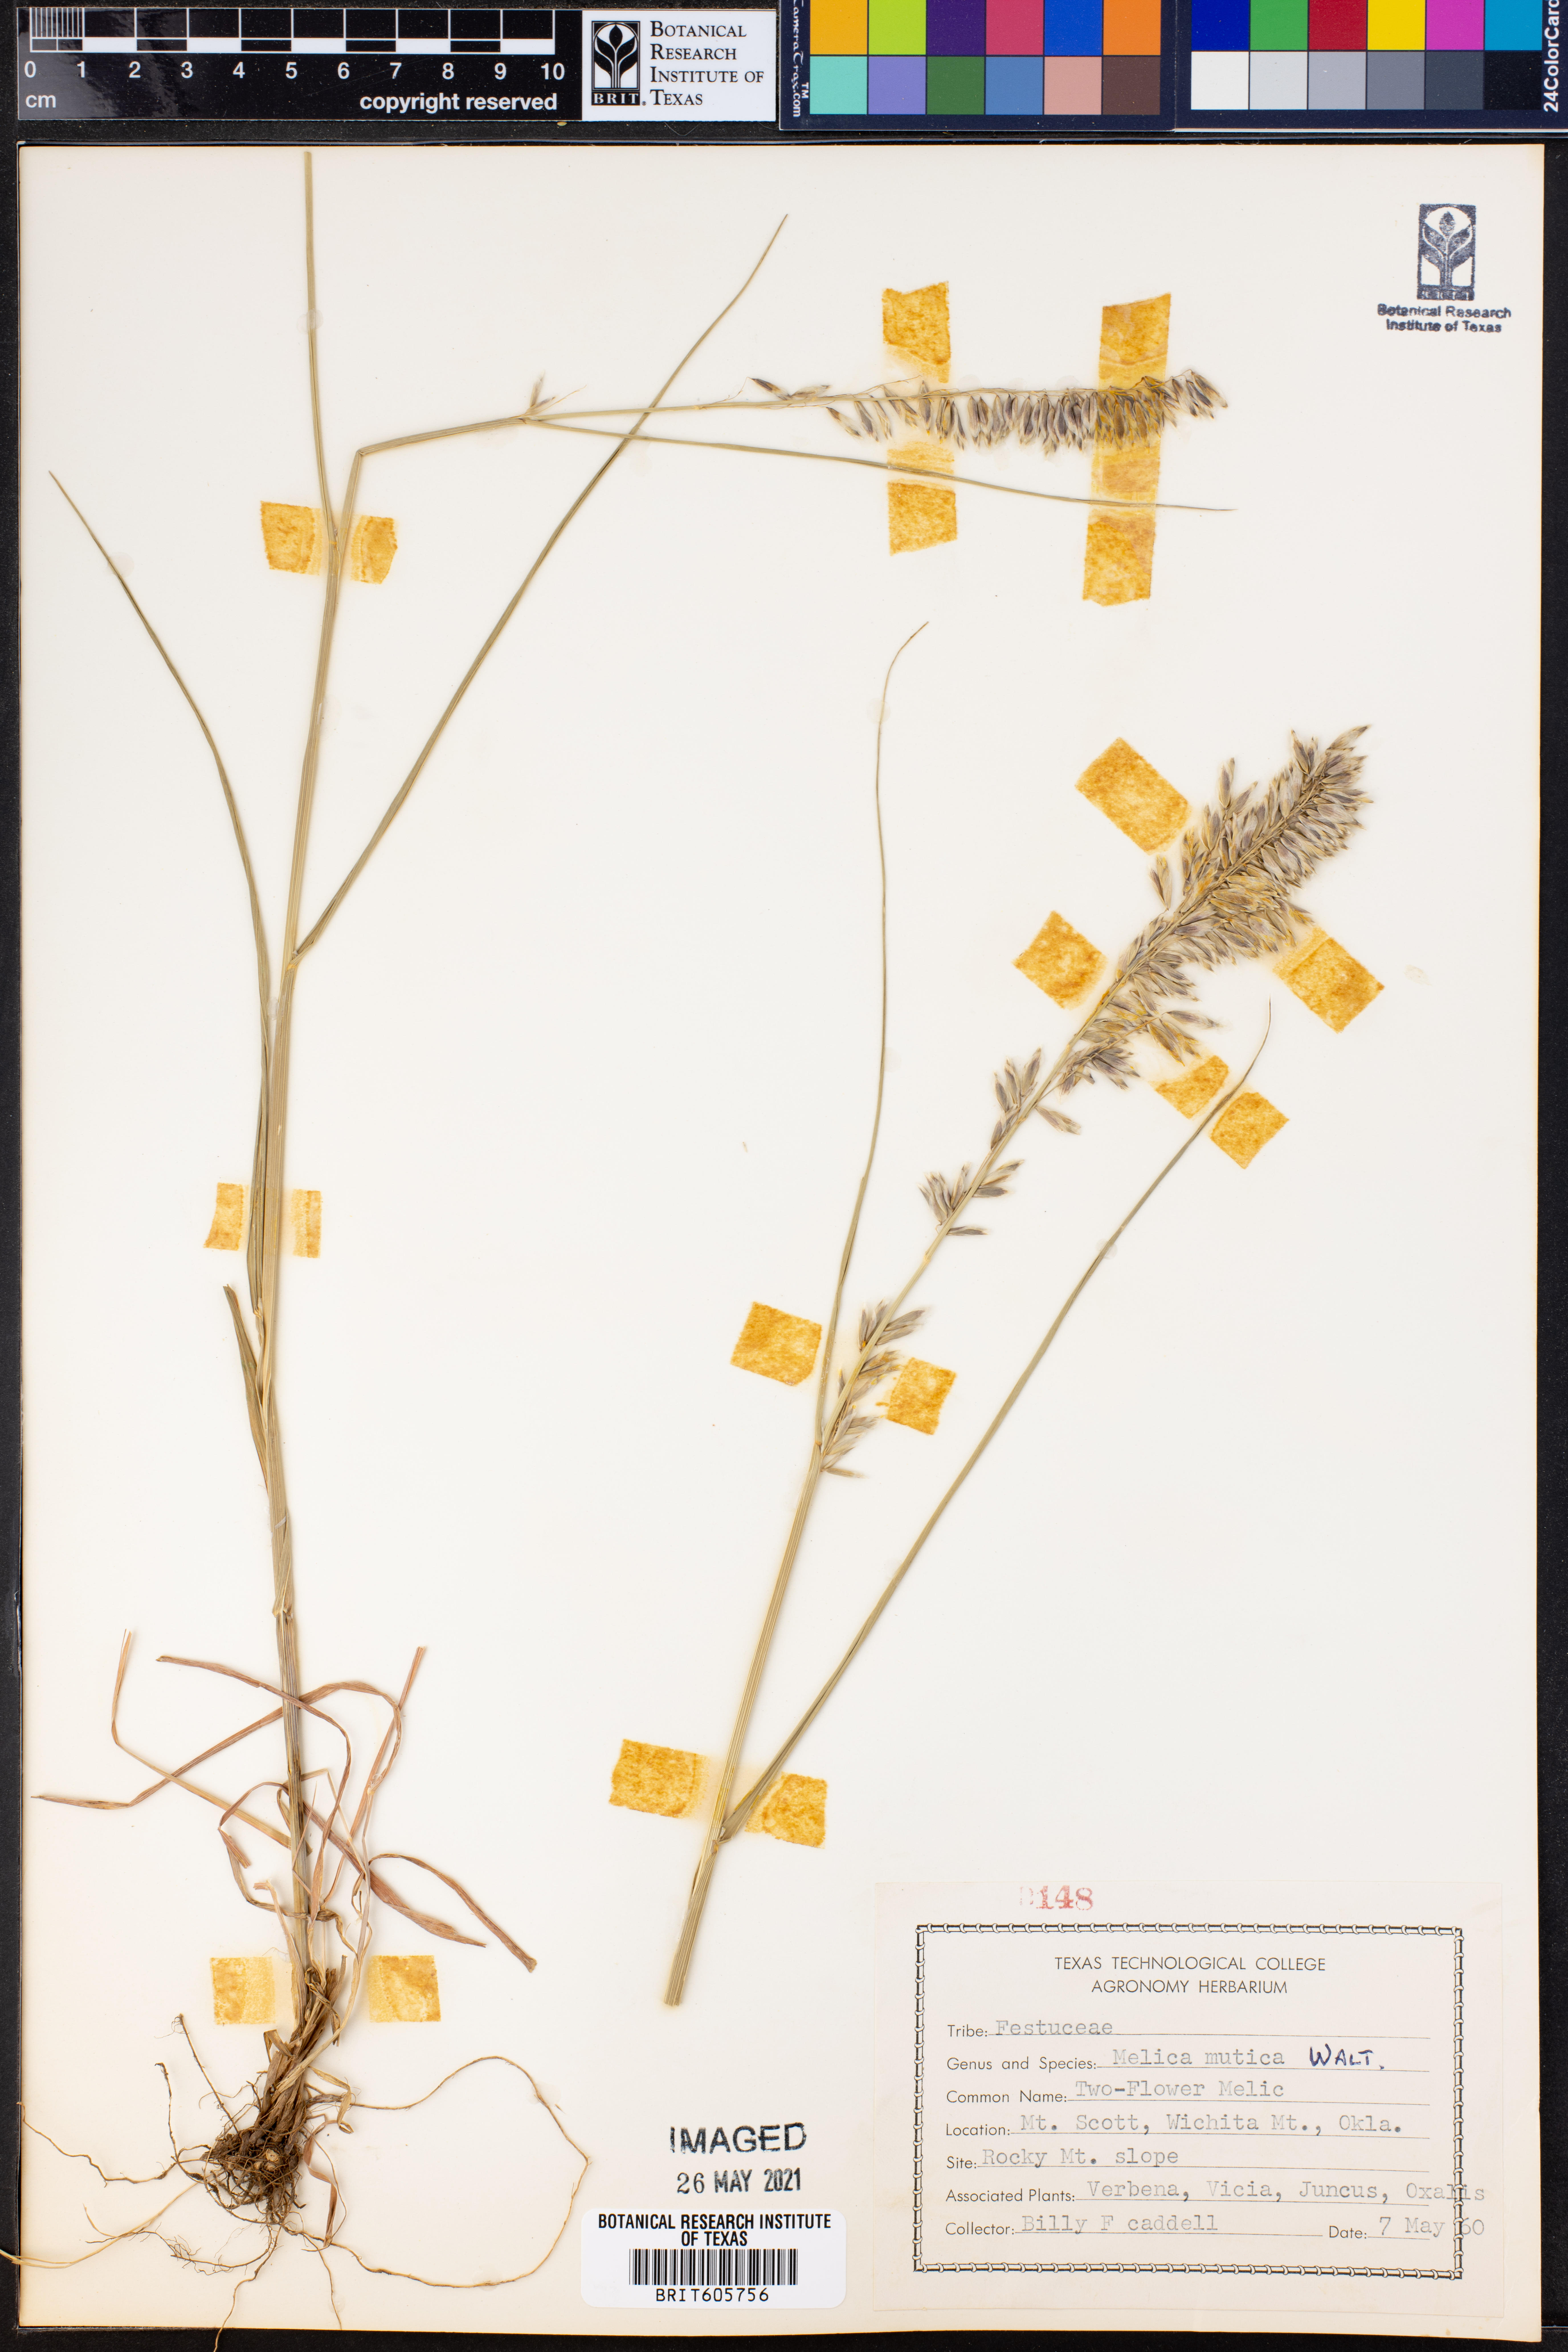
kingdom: Plantae
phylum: Tracheophyta
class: Liliopsida
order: Poales
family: Poaceae
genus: Melica
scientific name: Melica mutica
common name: Two-flower melic
